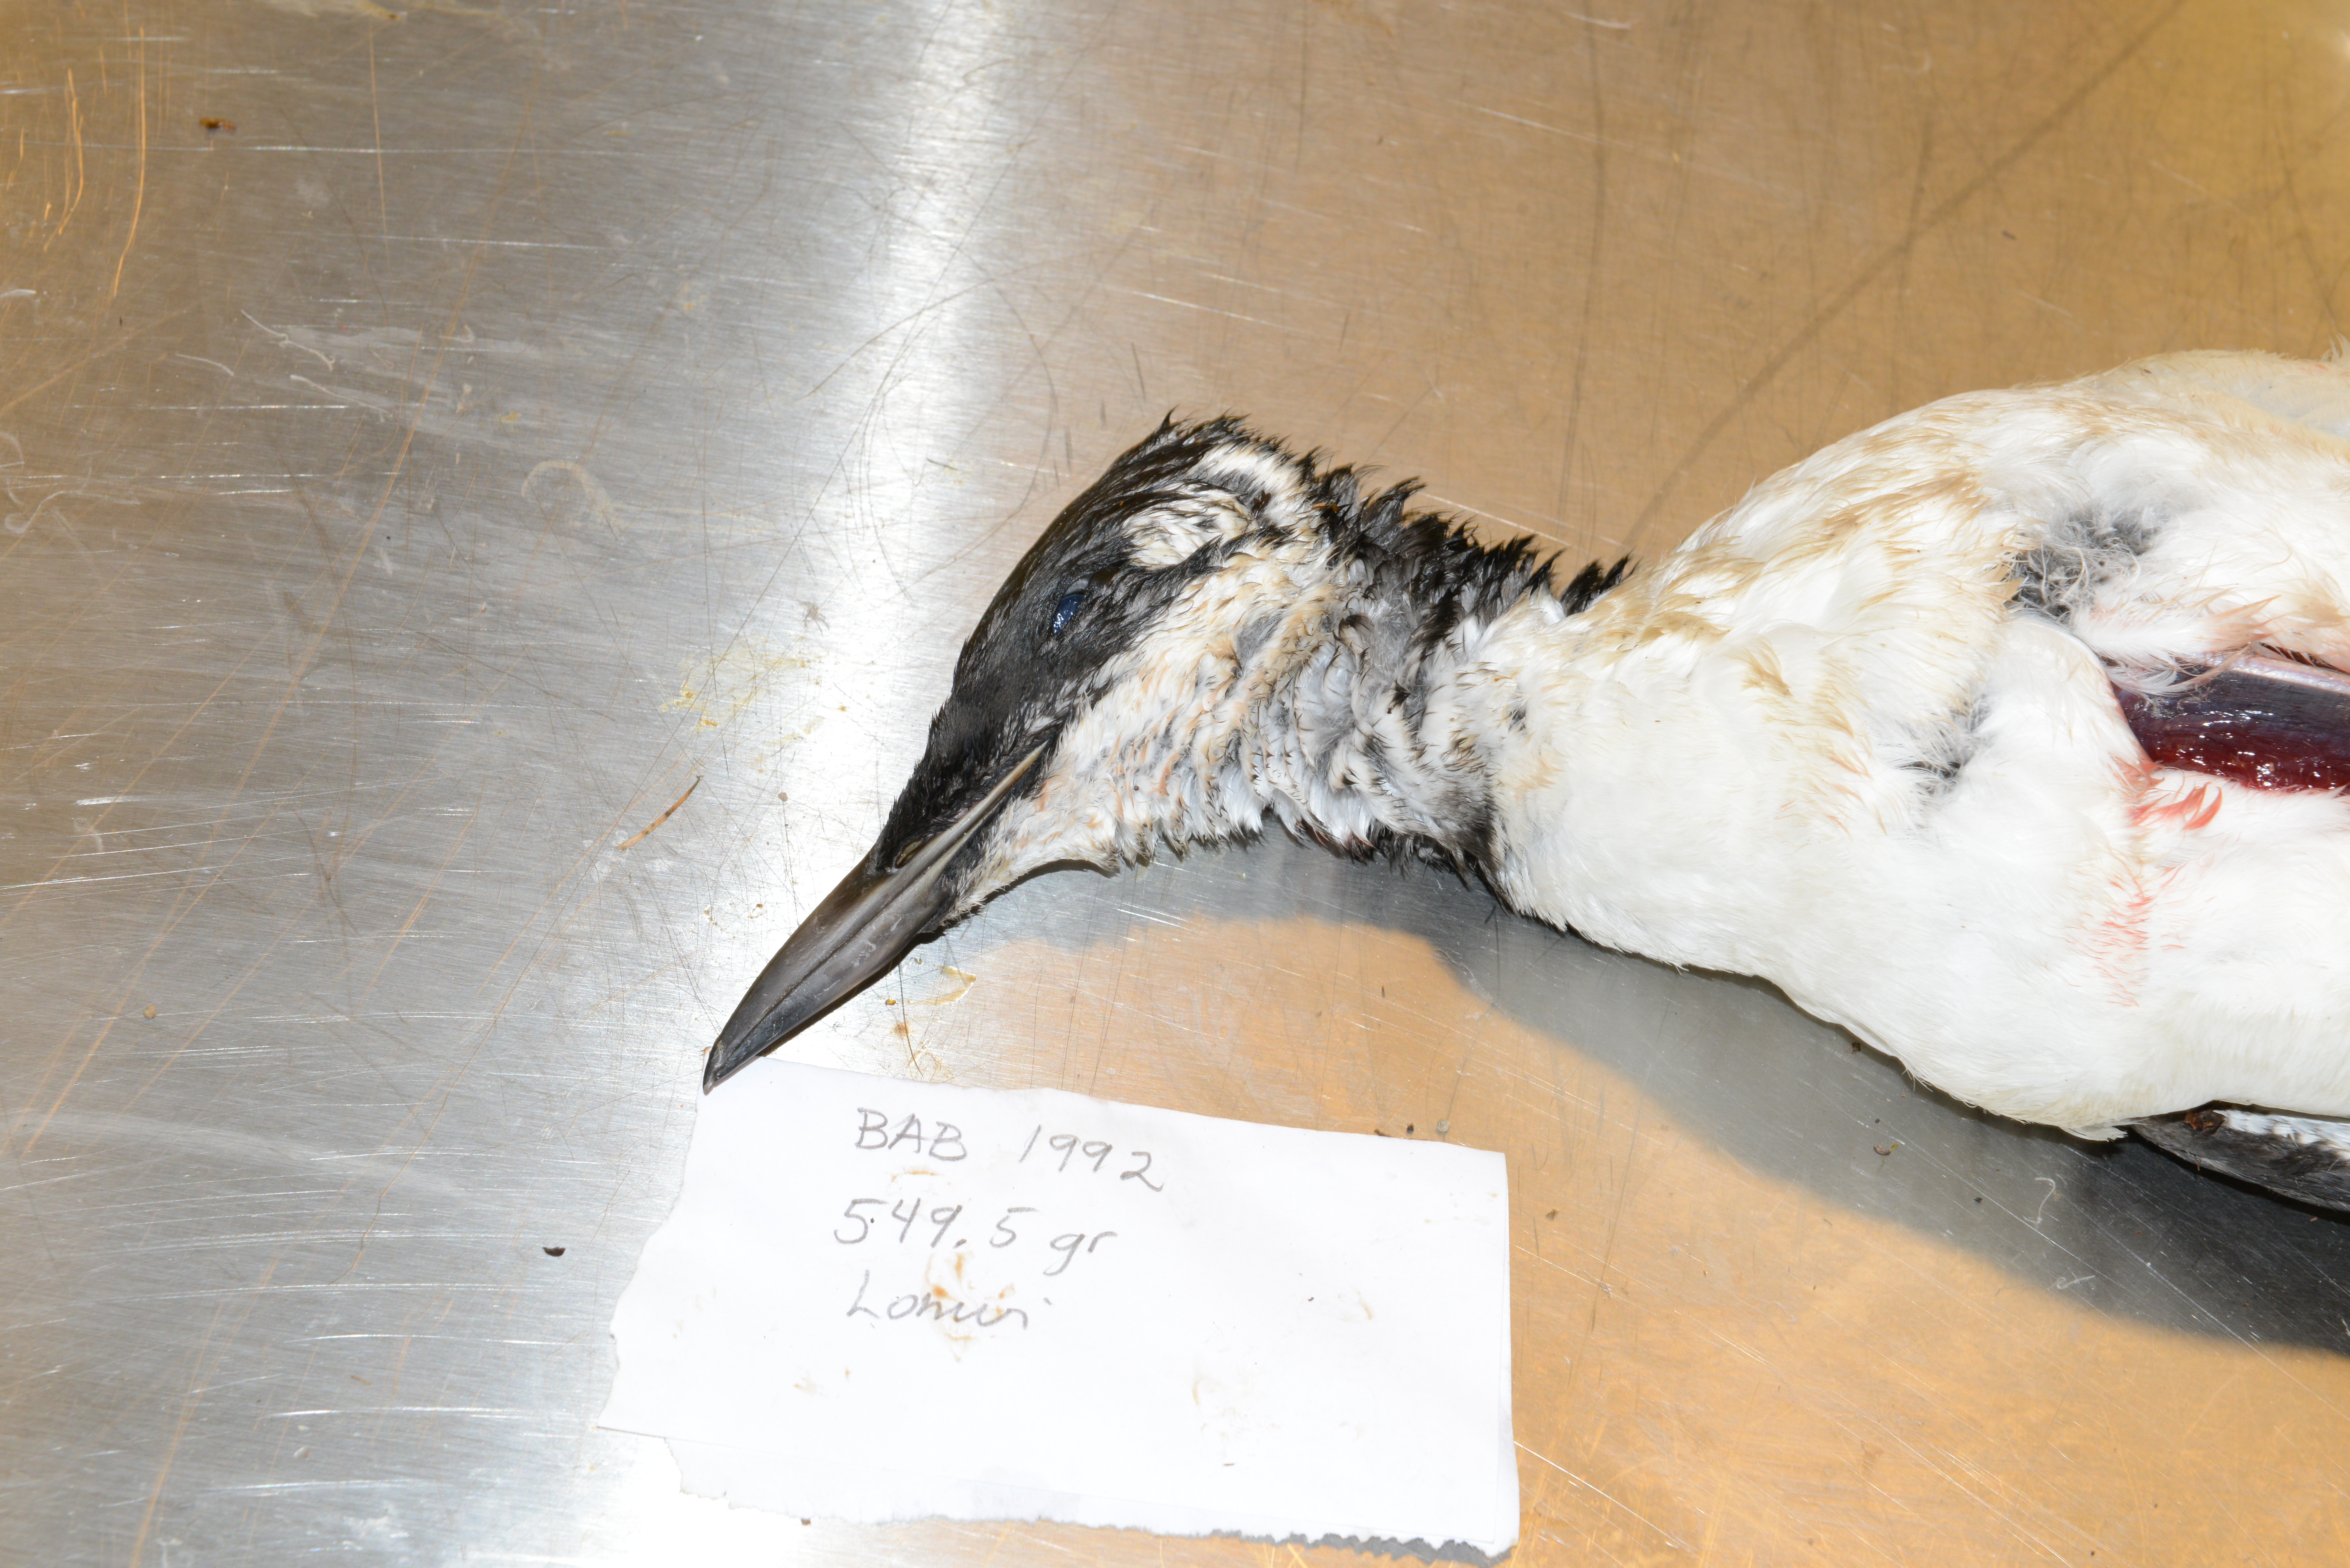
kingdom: Animalia
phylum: Chordata
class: Aves
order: Charadriiformes
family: Alcidae
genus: Uria
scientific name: Uria aalge
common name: Common murre
